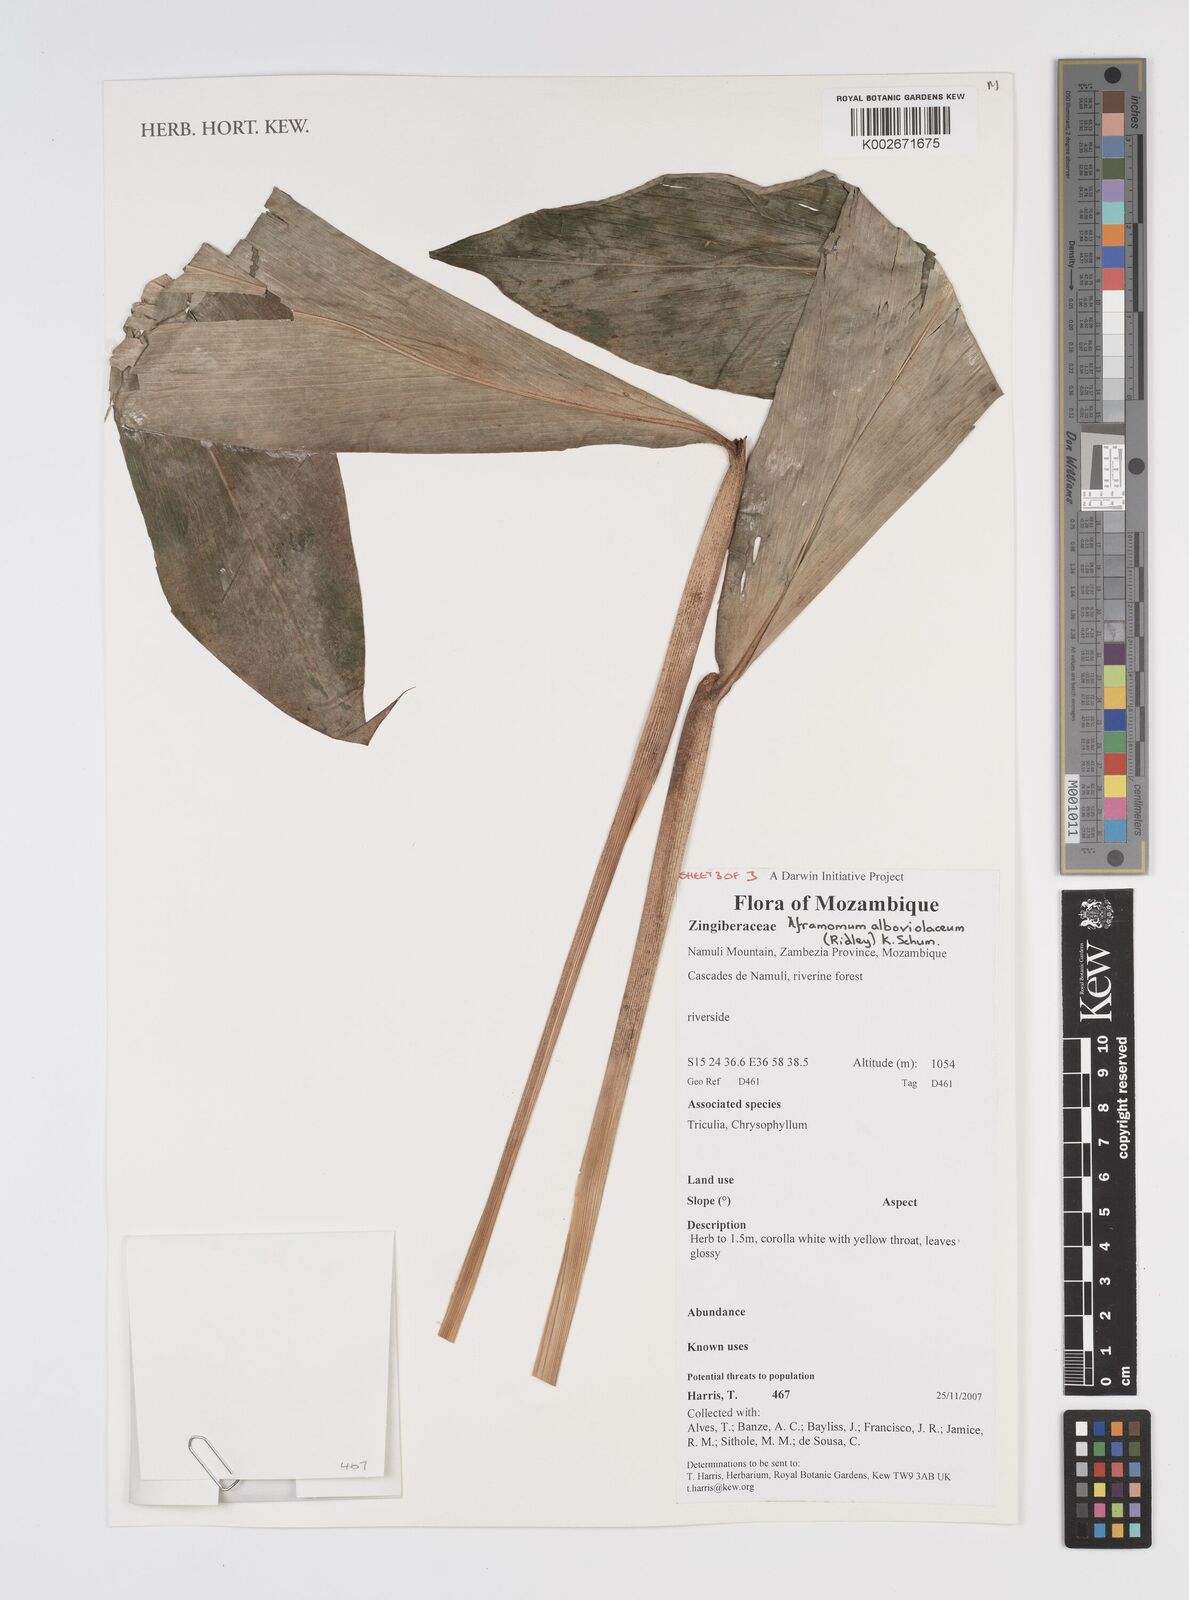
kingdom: Plantae
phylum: Tracheophyta
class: Liliopsida
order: Zingiberales
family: Zingiberaceae
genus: Aframomum
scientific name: Aframomum alboviolaceum
